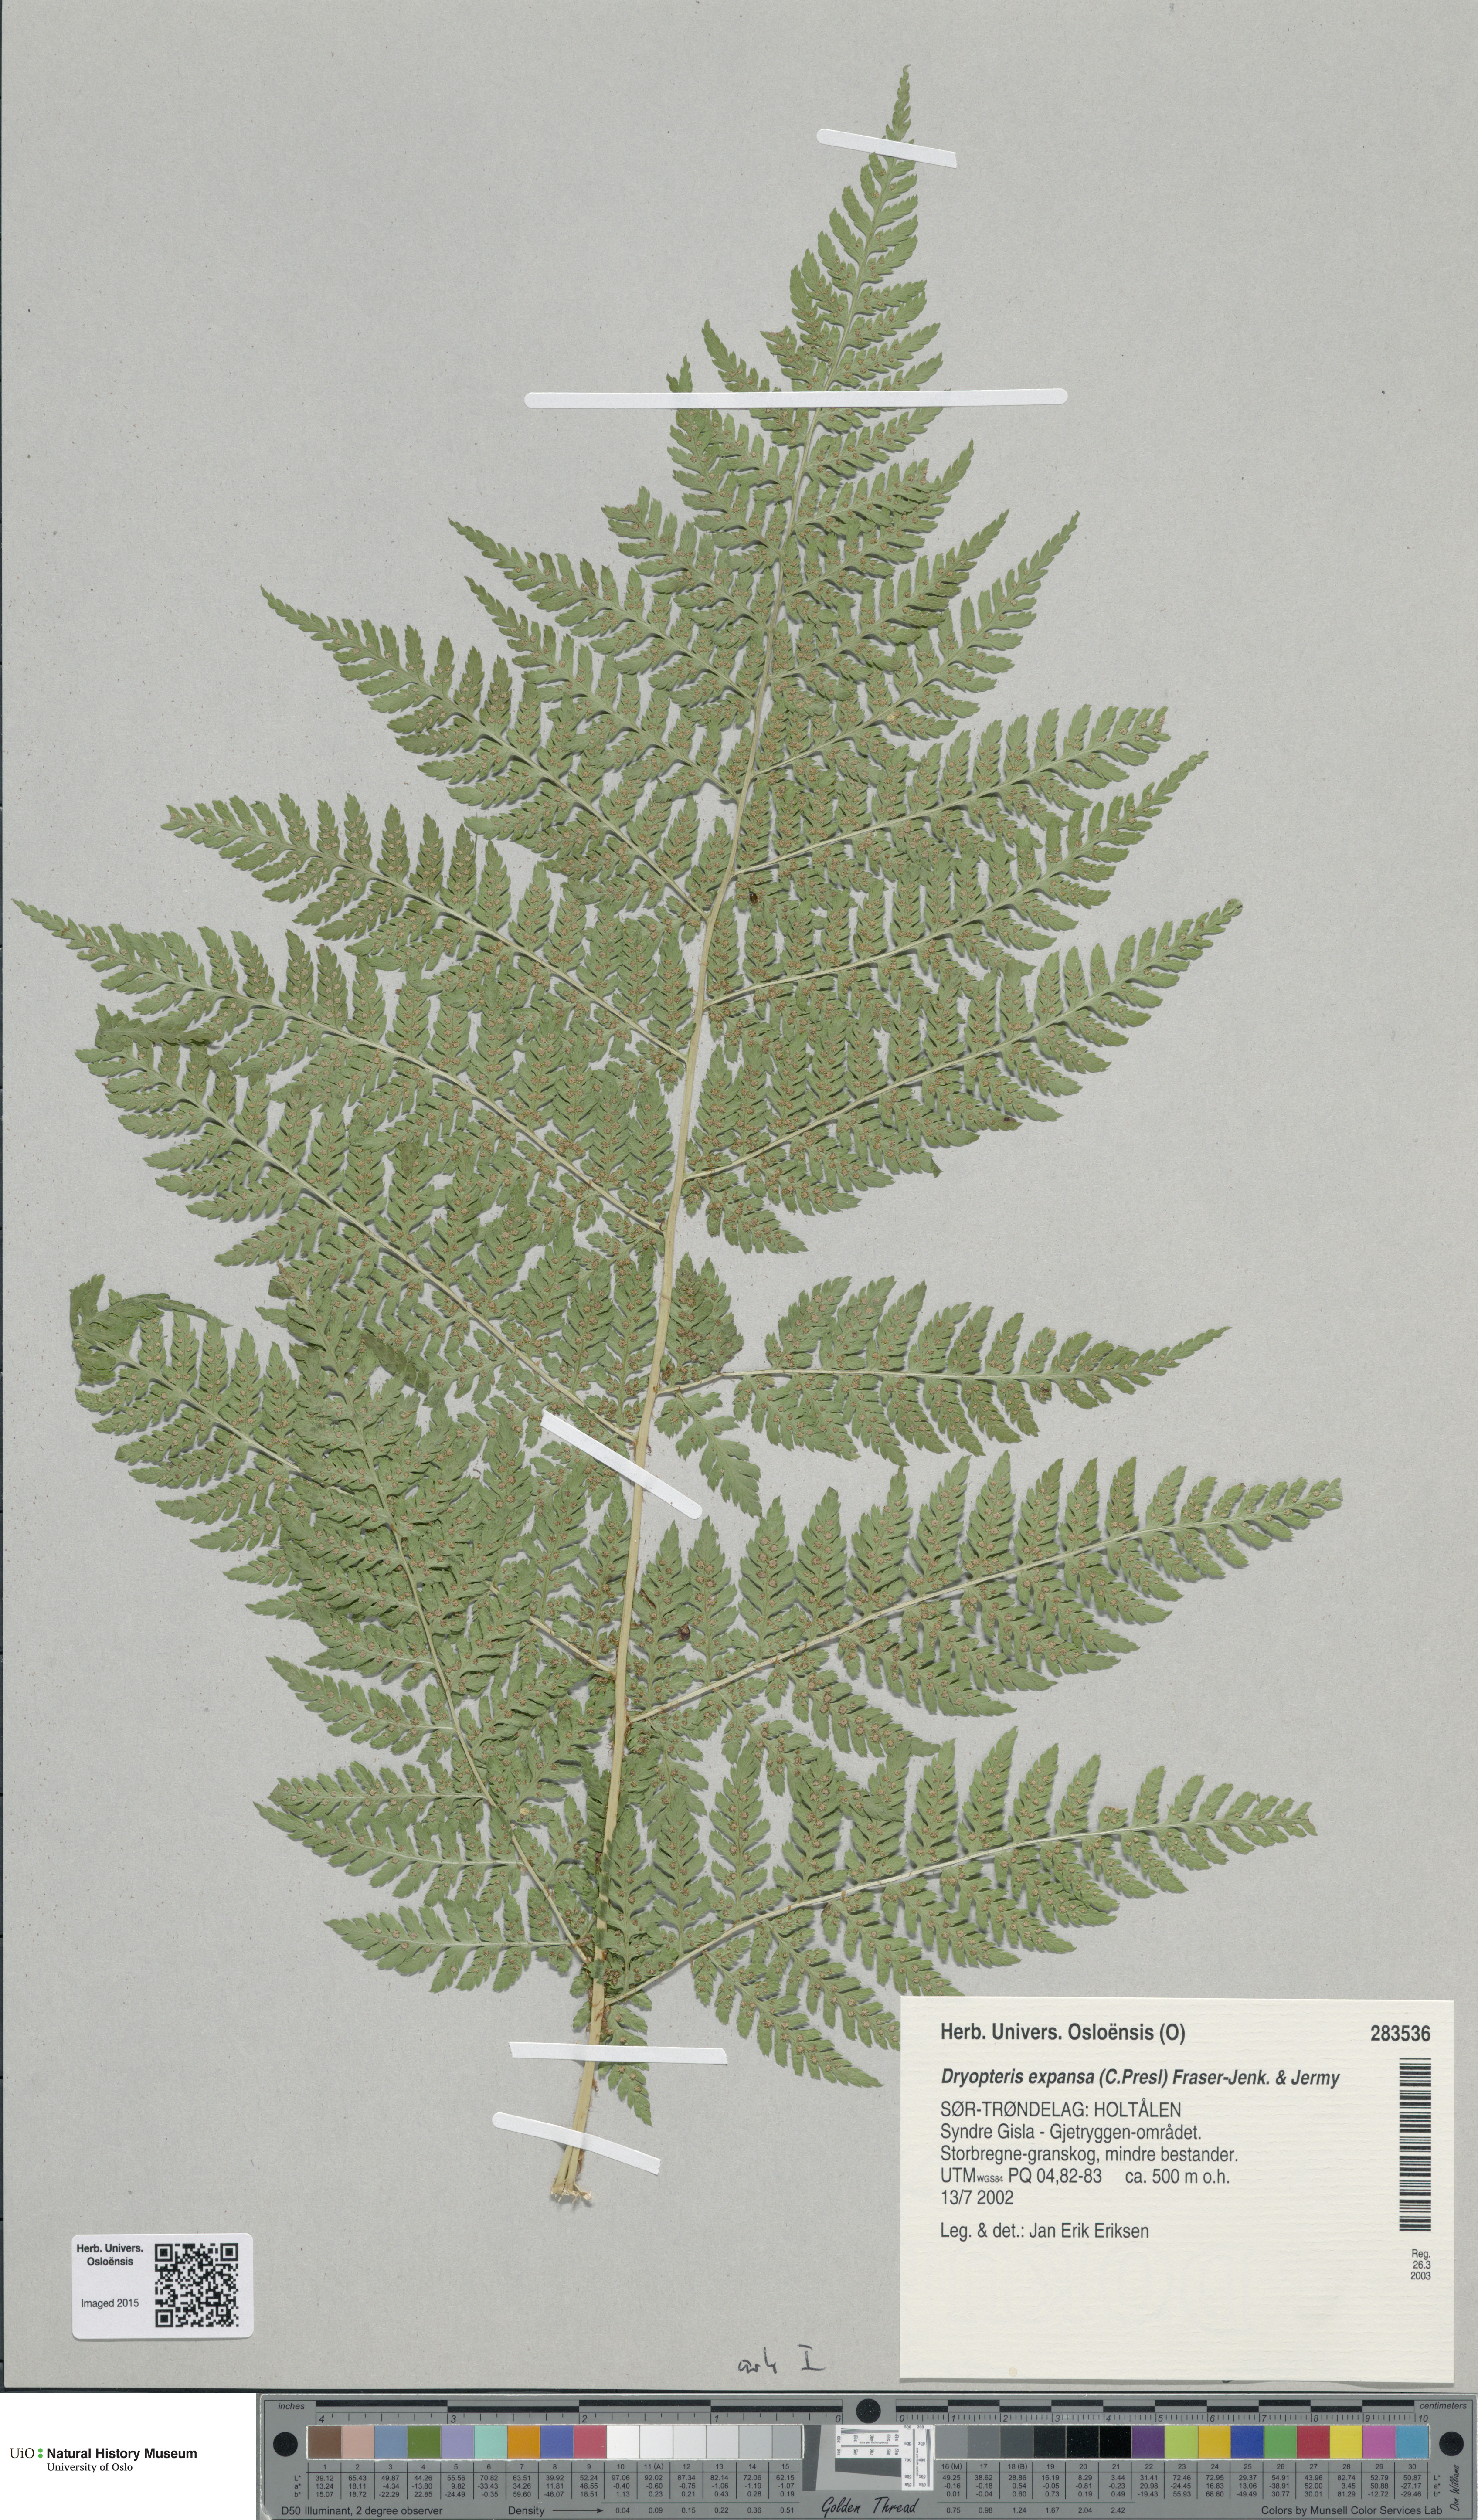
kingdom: Plantae
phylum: Tracheophyta
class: Polypodiopsida
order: Polypodiales
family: Dryopteridaceae
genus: Dryopteris
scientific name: Dryopteris expansa
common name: Northern buckler fern
